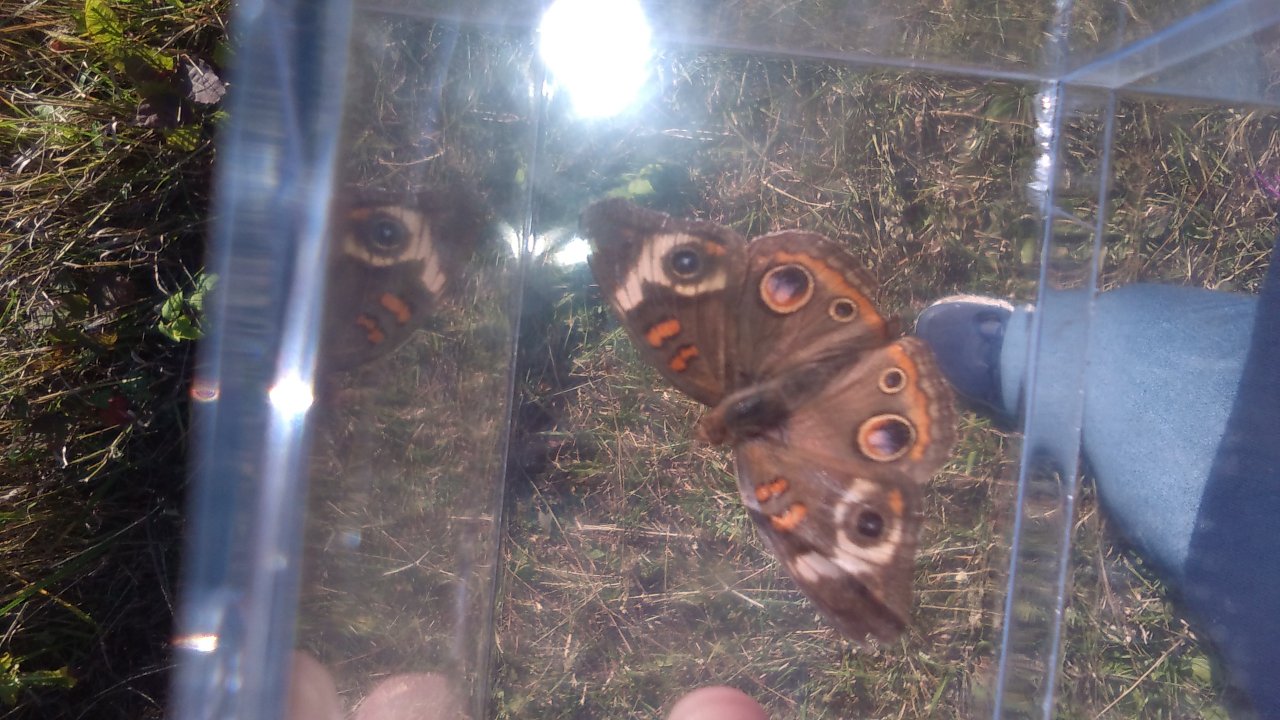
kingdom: Animalia
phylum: Arthropoda
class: Insecta
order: Lepidoptera
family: Nymphalidae
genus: Junonia
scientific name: Junonia coenia
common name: Common Buckeye
